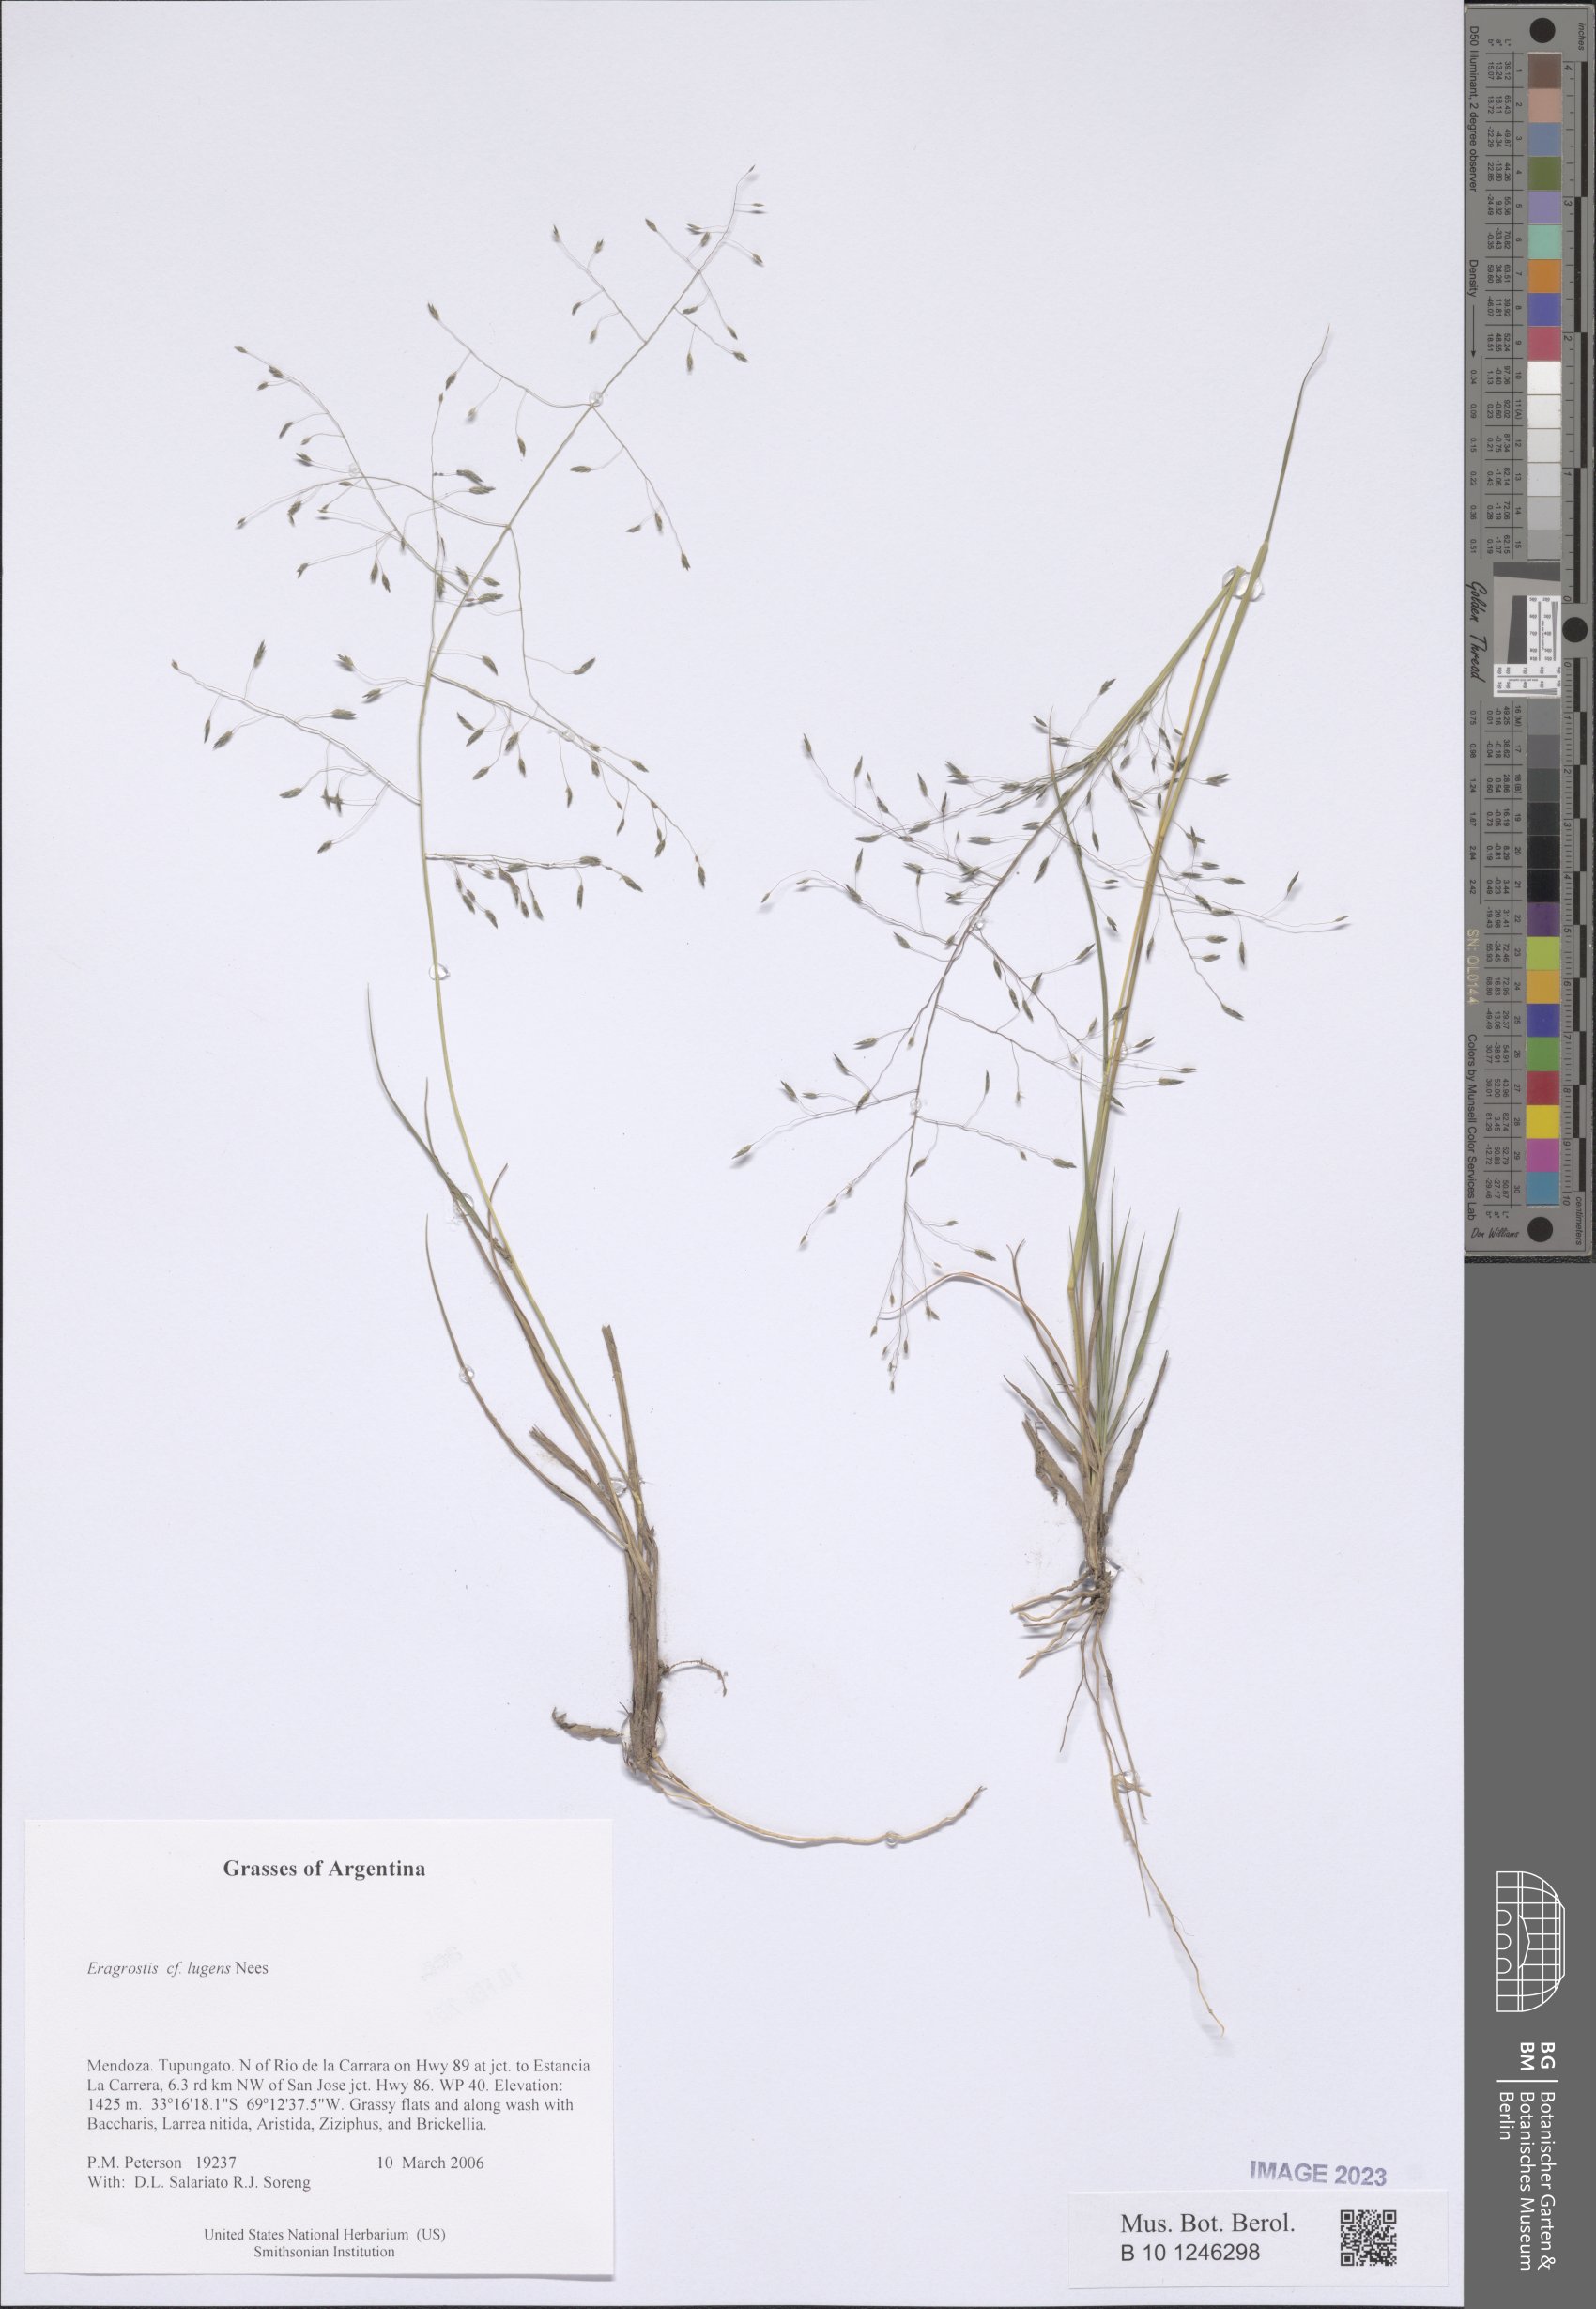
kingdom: Plantae
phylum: Tracheophyta
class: Liliopsida
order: Poales
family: Poaceae
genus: Eragrostis
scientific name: Eragrostis lugens
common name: Mourning love grass
